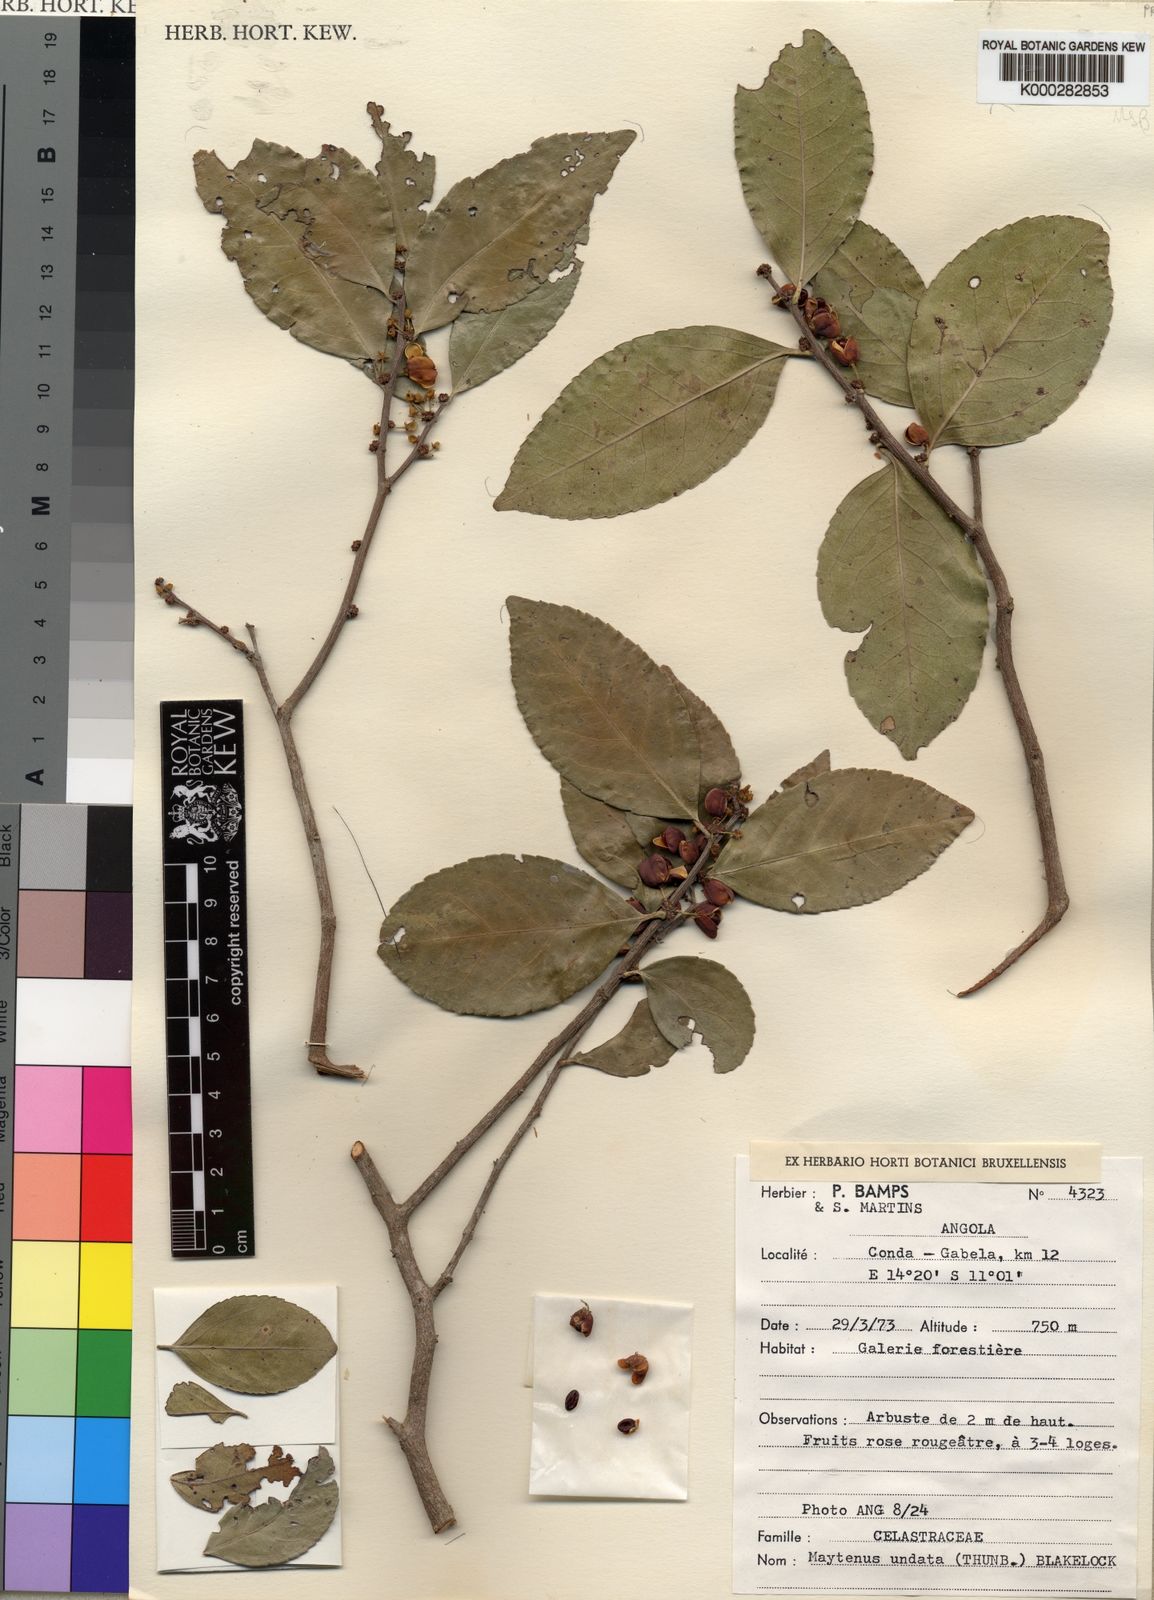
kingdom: Plantae
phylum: Tracheophyta
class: Magnoliopsida
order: Celastrales
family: Celastraceae
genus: Gymnosporia
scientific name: Gymnosporia undata
